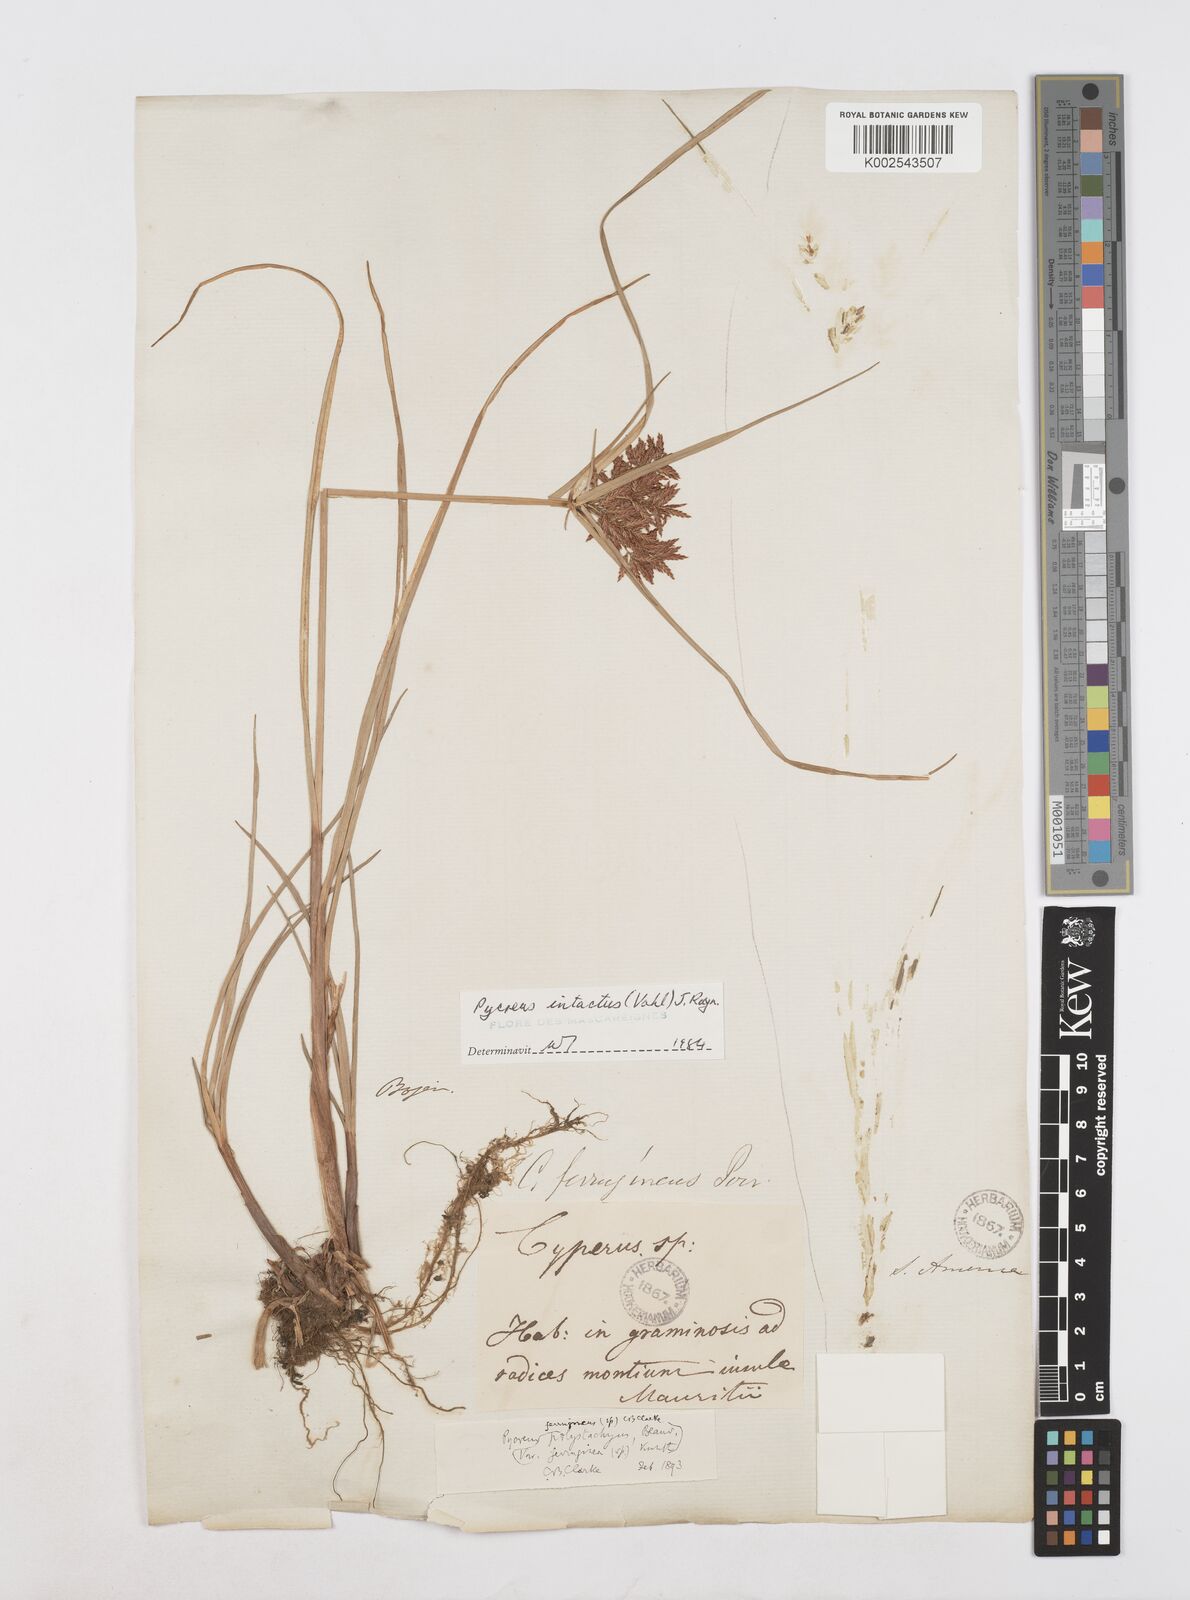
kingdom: Plantae
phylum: Tracheophyta
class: Liliopsida
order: Poales
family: Cyperaceae
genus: Cyperus
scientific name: Cyperus intactus
